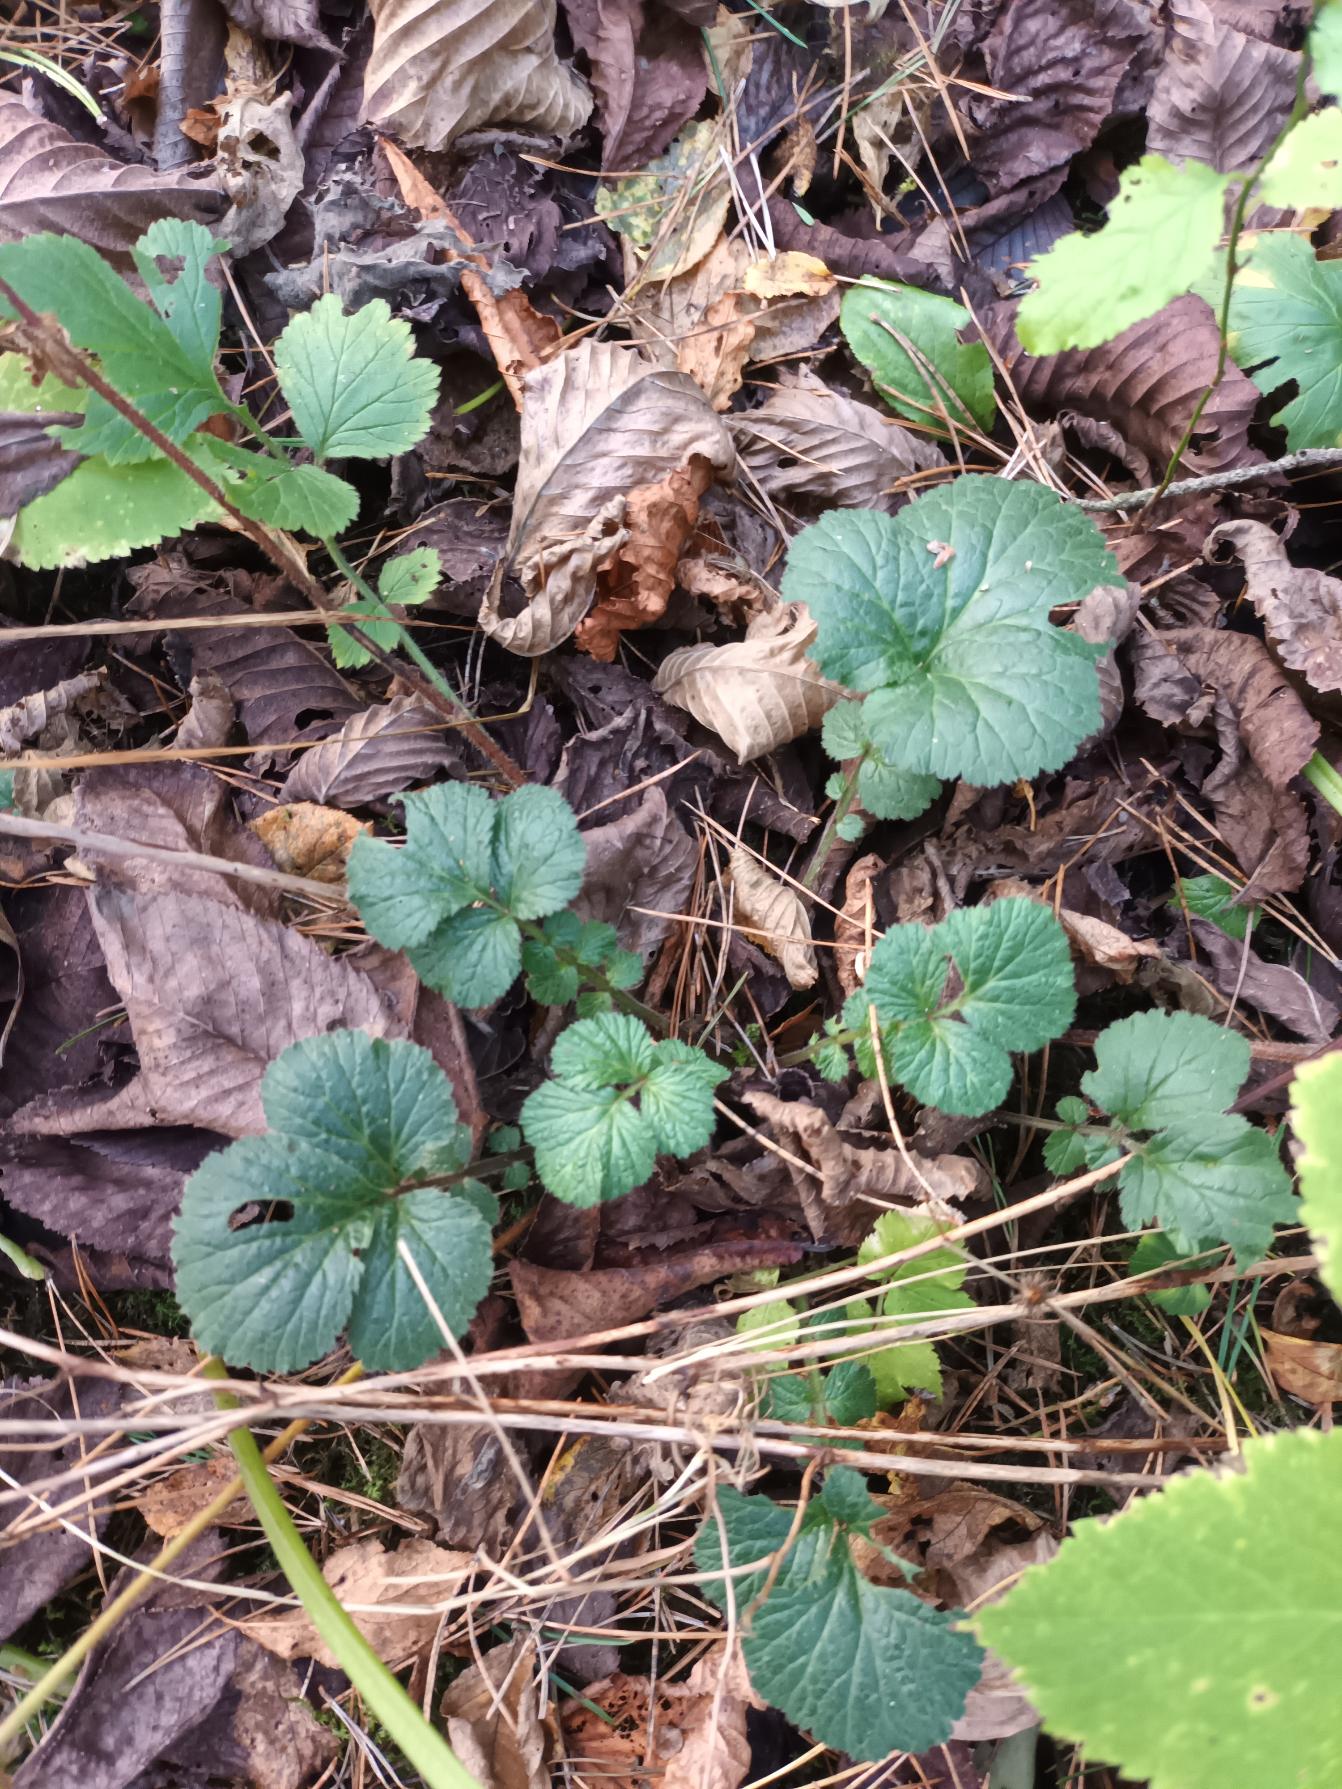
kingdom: Plantae
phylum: Tracheophyta
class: Magnoliopsida
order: Rosales
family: Rosaceae
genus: Geum
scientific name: Geum urbanum
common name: Feber-nellikerod
